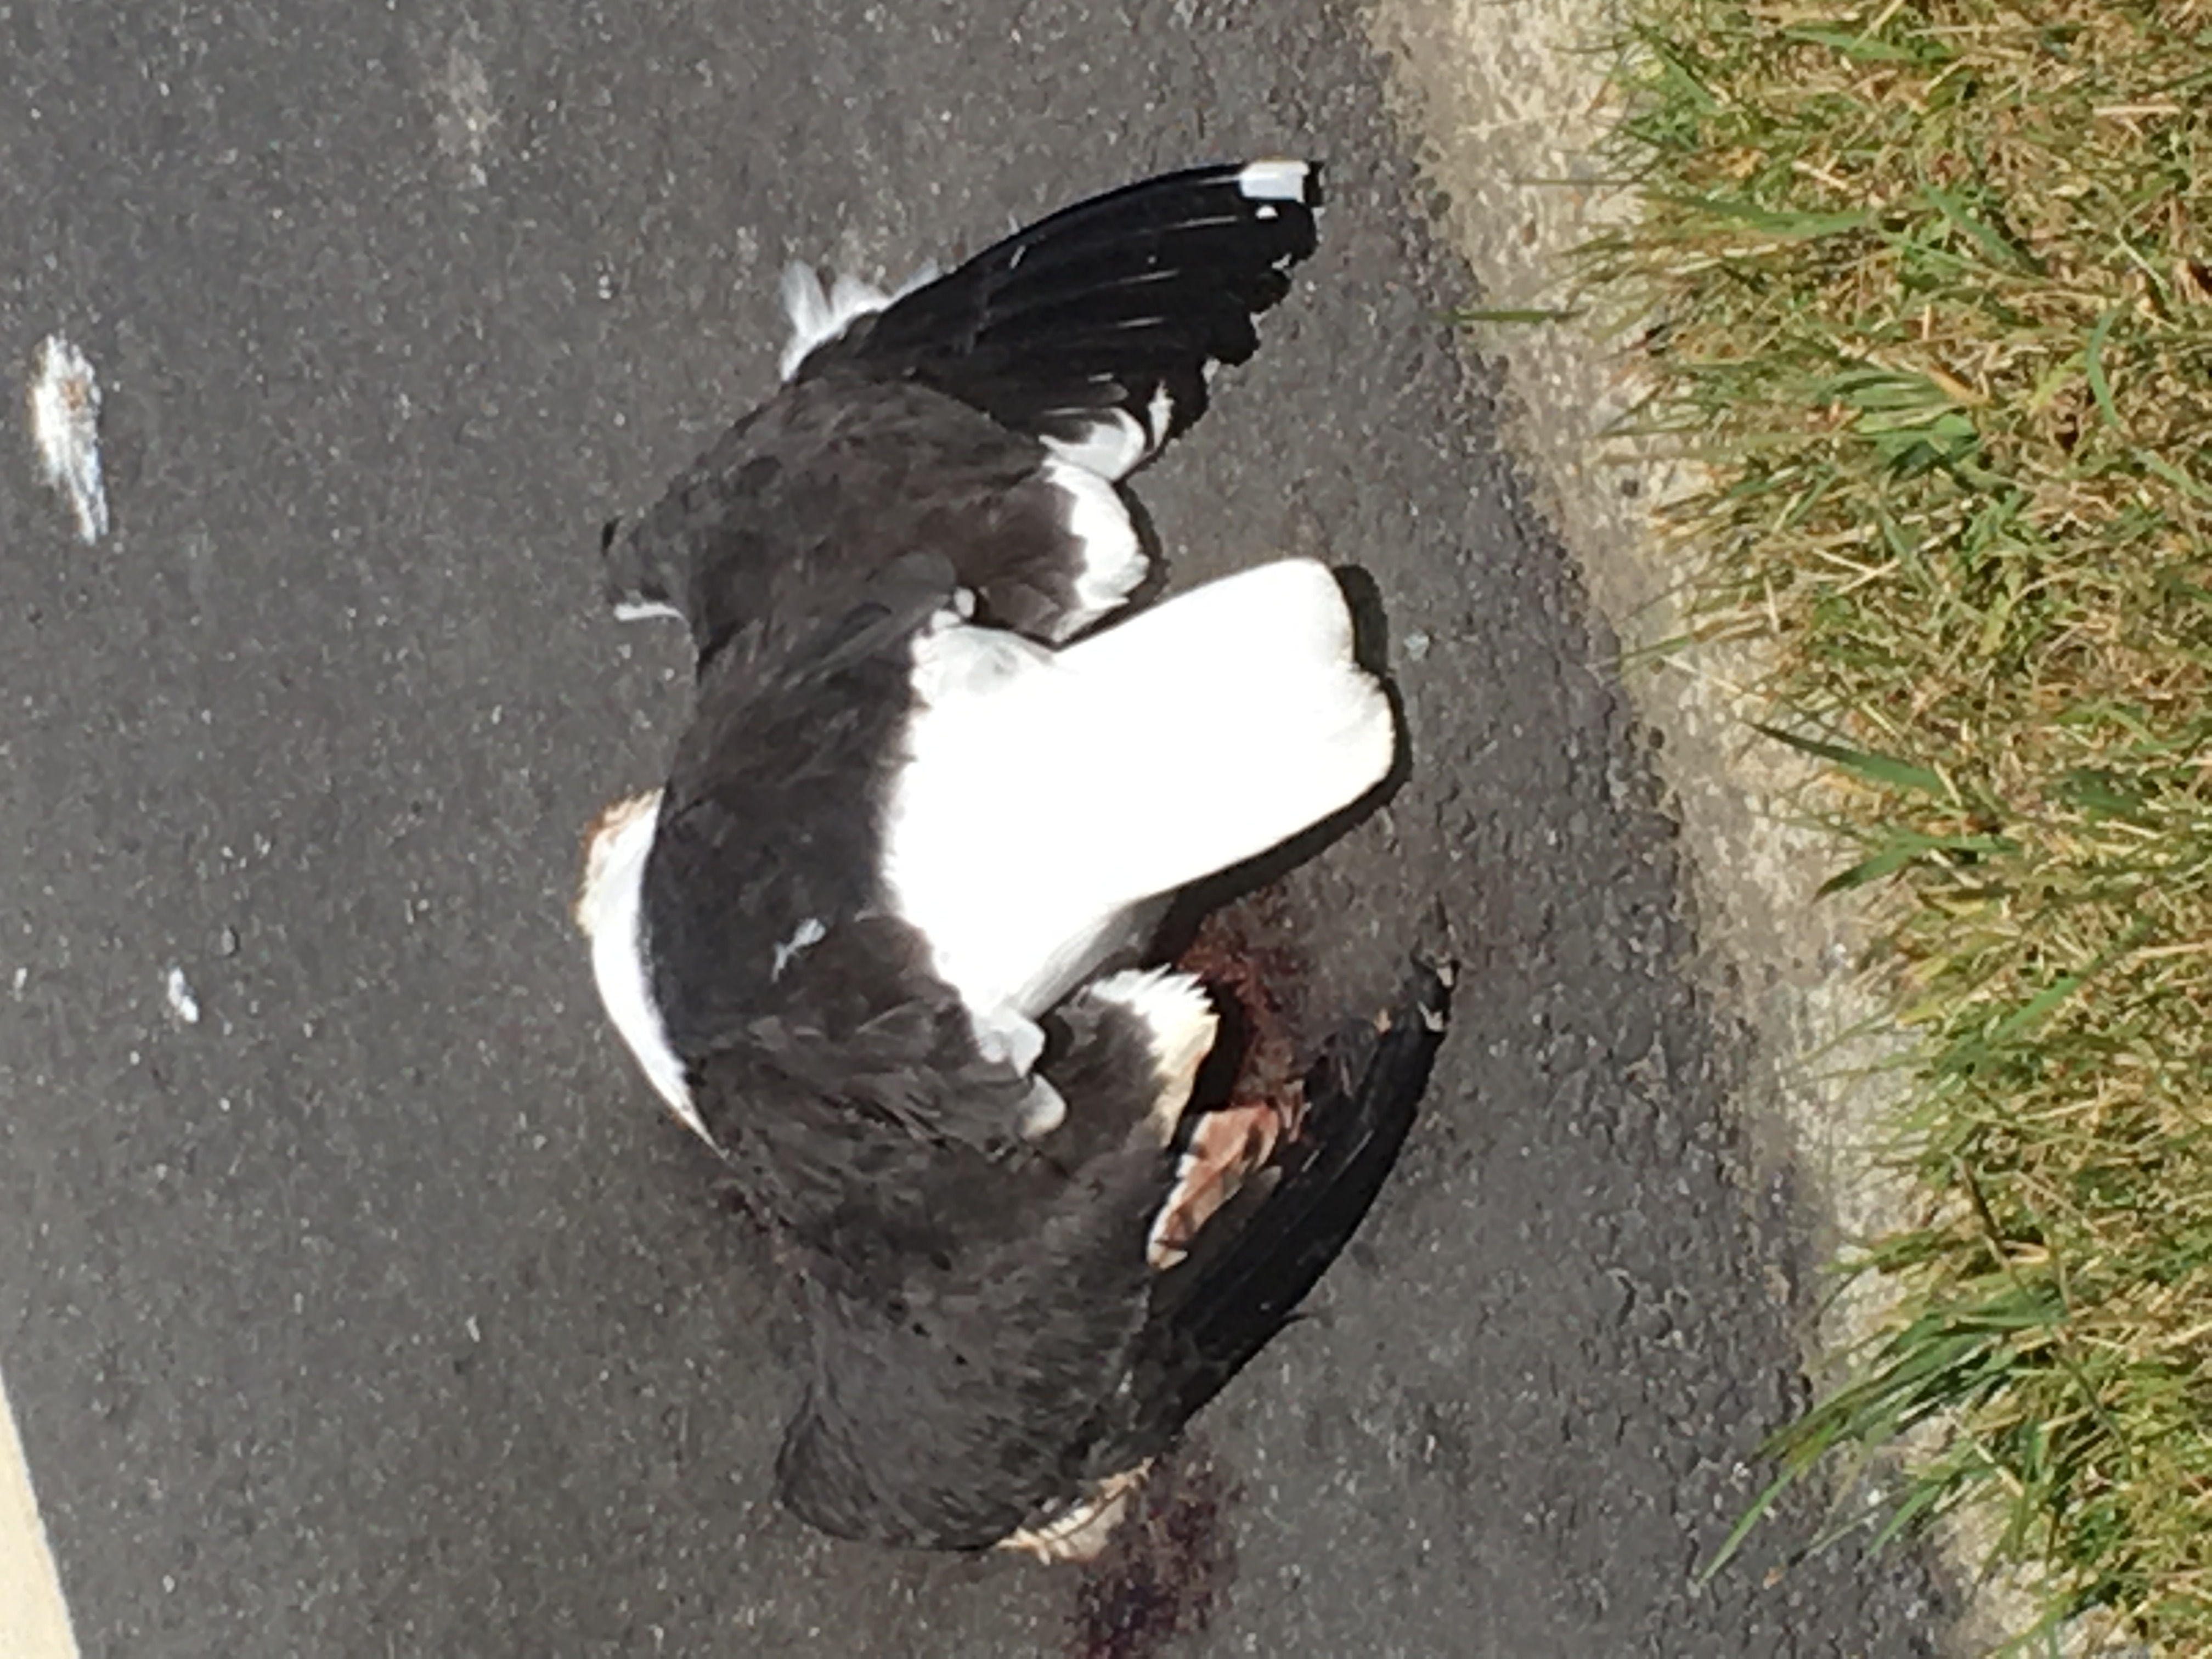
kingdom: Animalia
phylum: Chordata
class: Aves
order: Charadriiformes
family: Laridae
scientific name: Laridae
